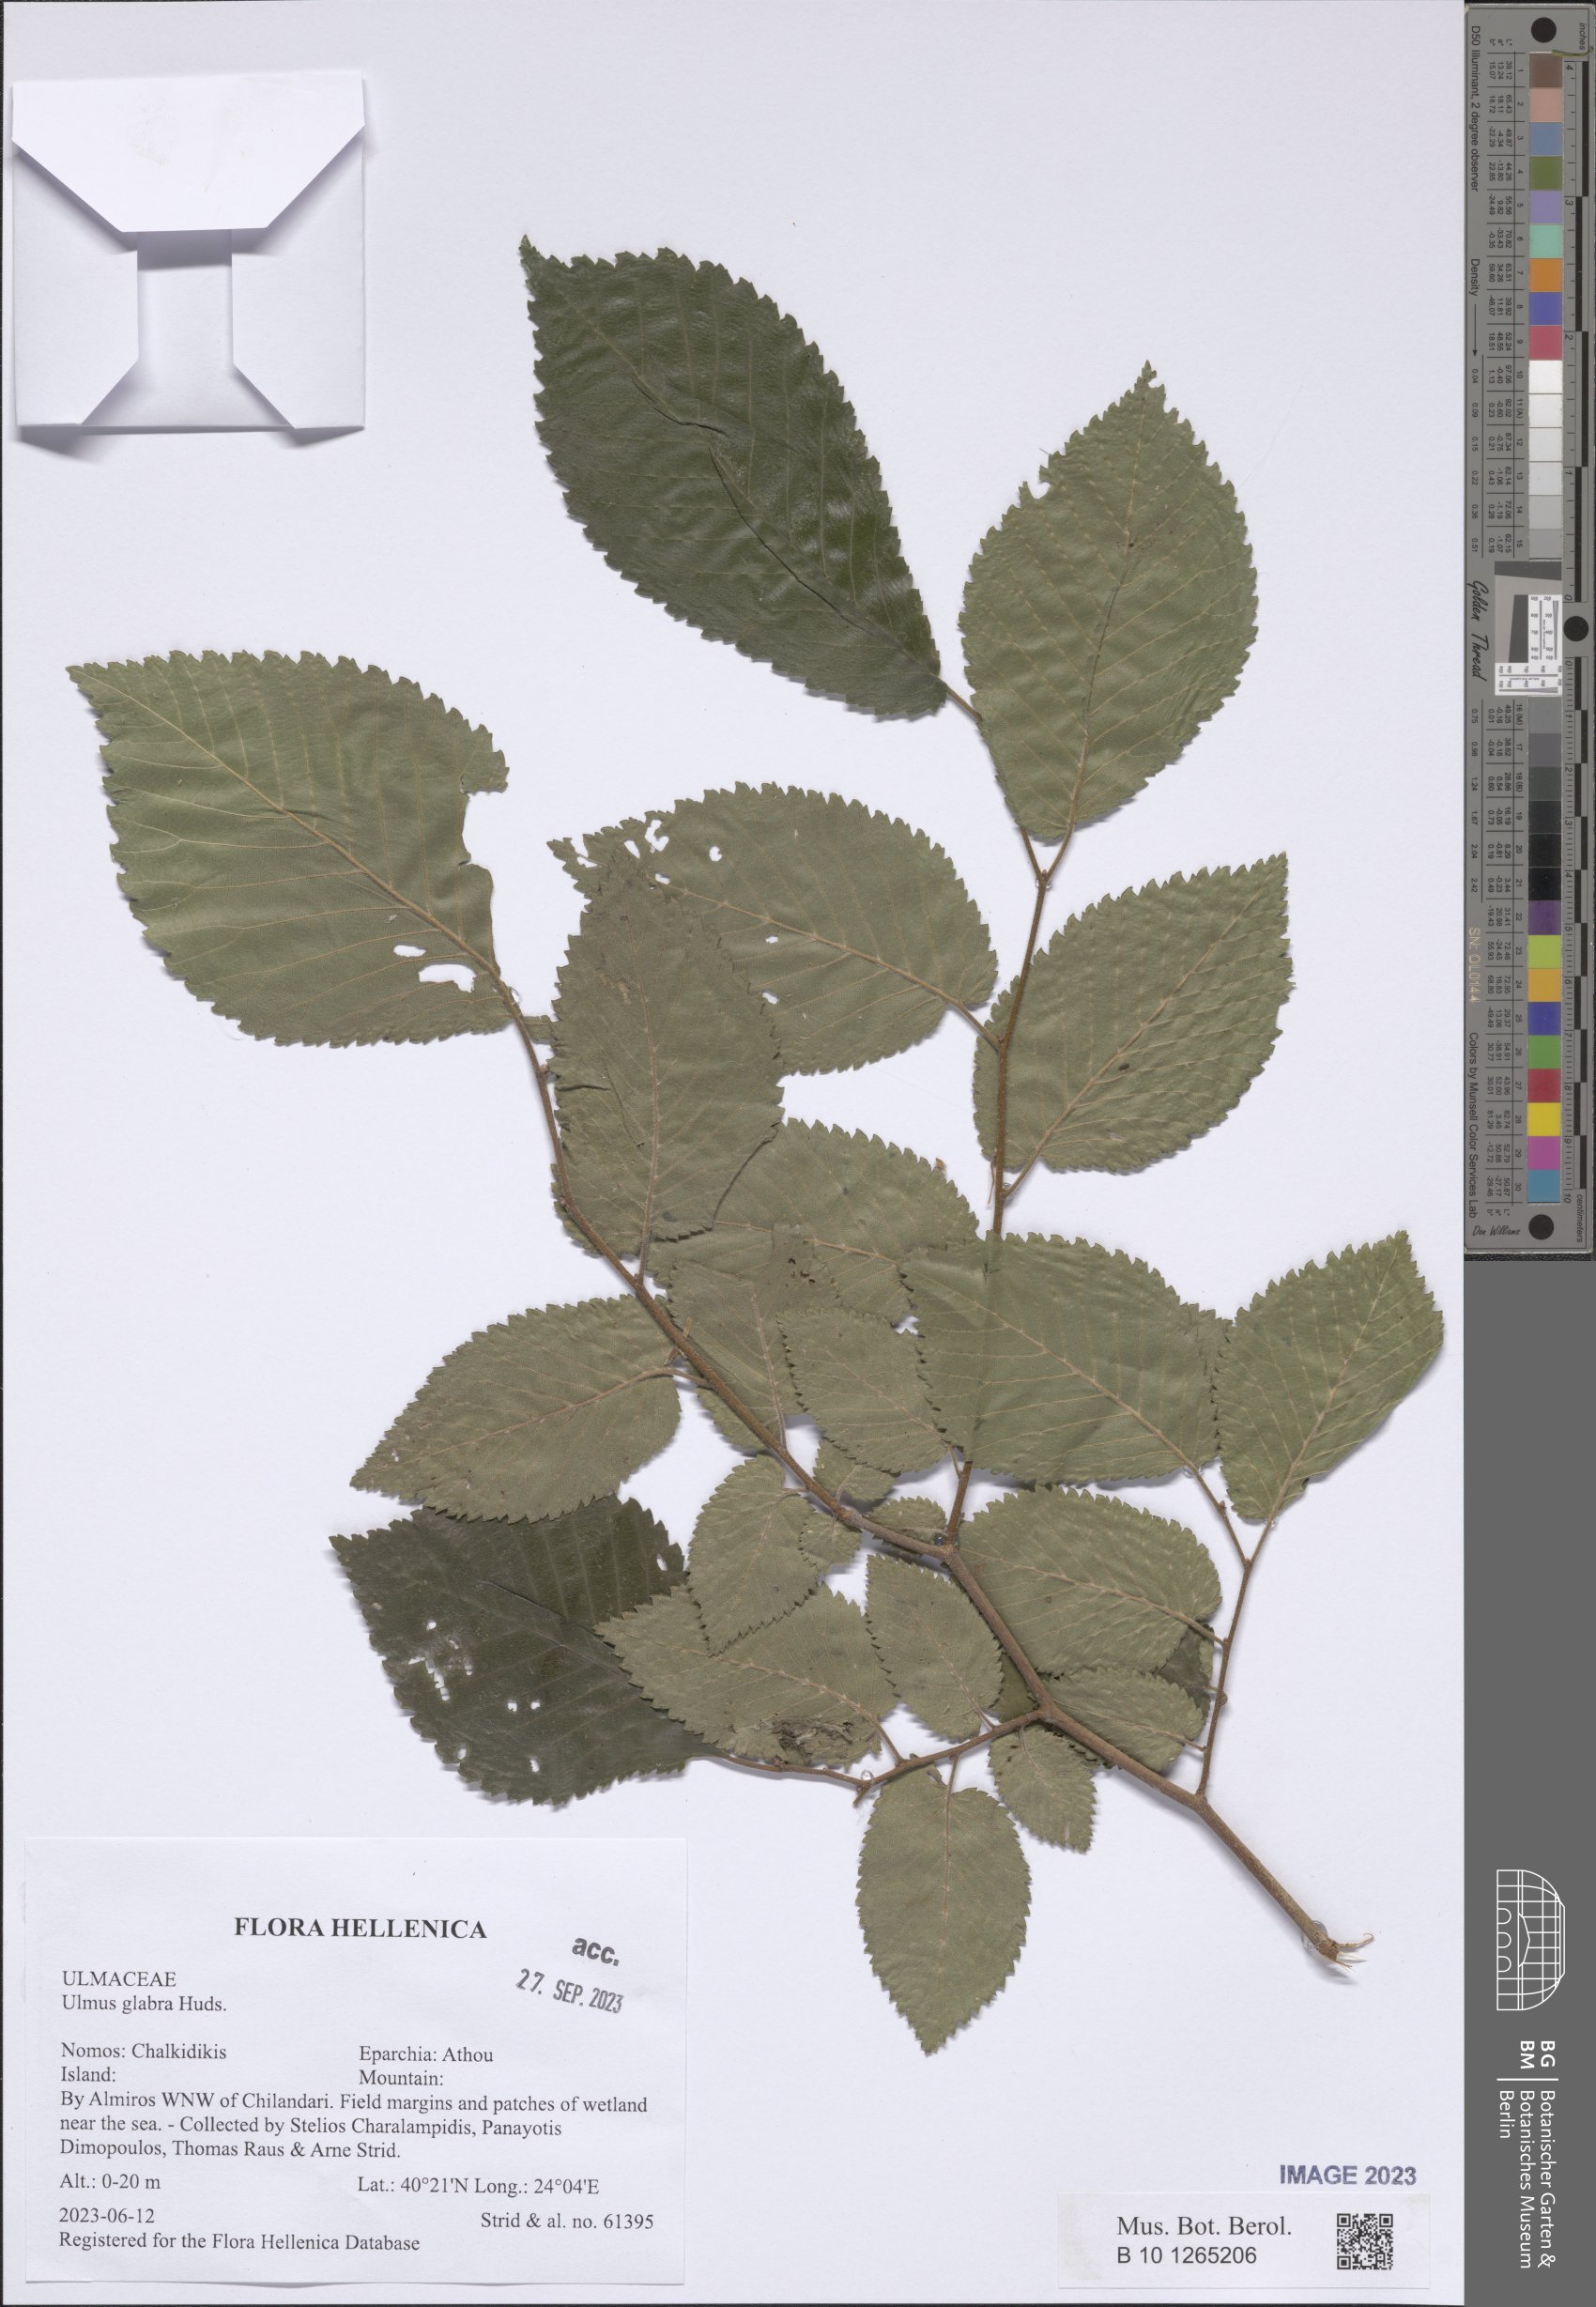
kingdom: Plantae
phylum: Tracheophyta
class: Magnoliopsida
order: Rosales
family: Ulmaceae
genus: Ulmus
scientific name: Ulmus glabra
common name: Wych elm
